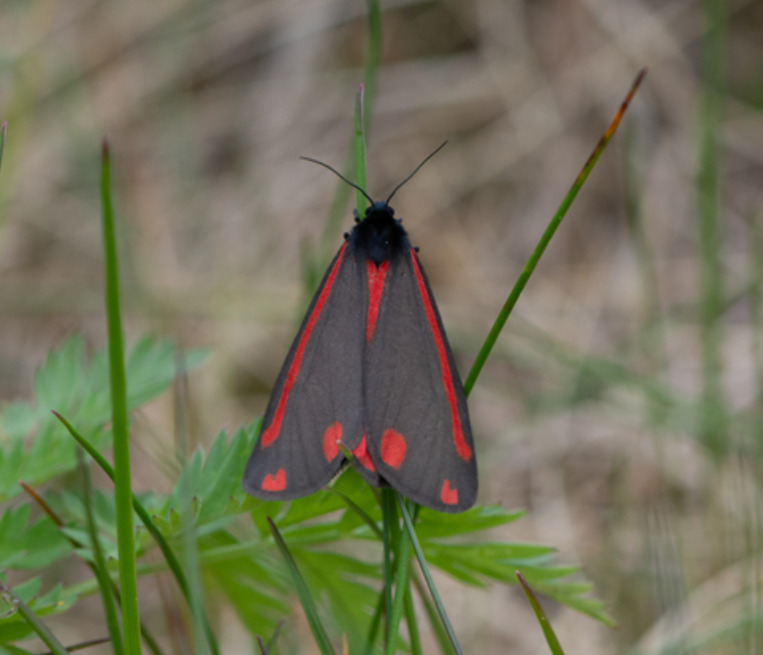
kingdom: Animalia
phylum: Arthropoda
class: Insecta
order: Lepidoptera
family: Erebidae
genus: Tyria
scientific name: Tyria jacobaeae
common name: Blodplet
